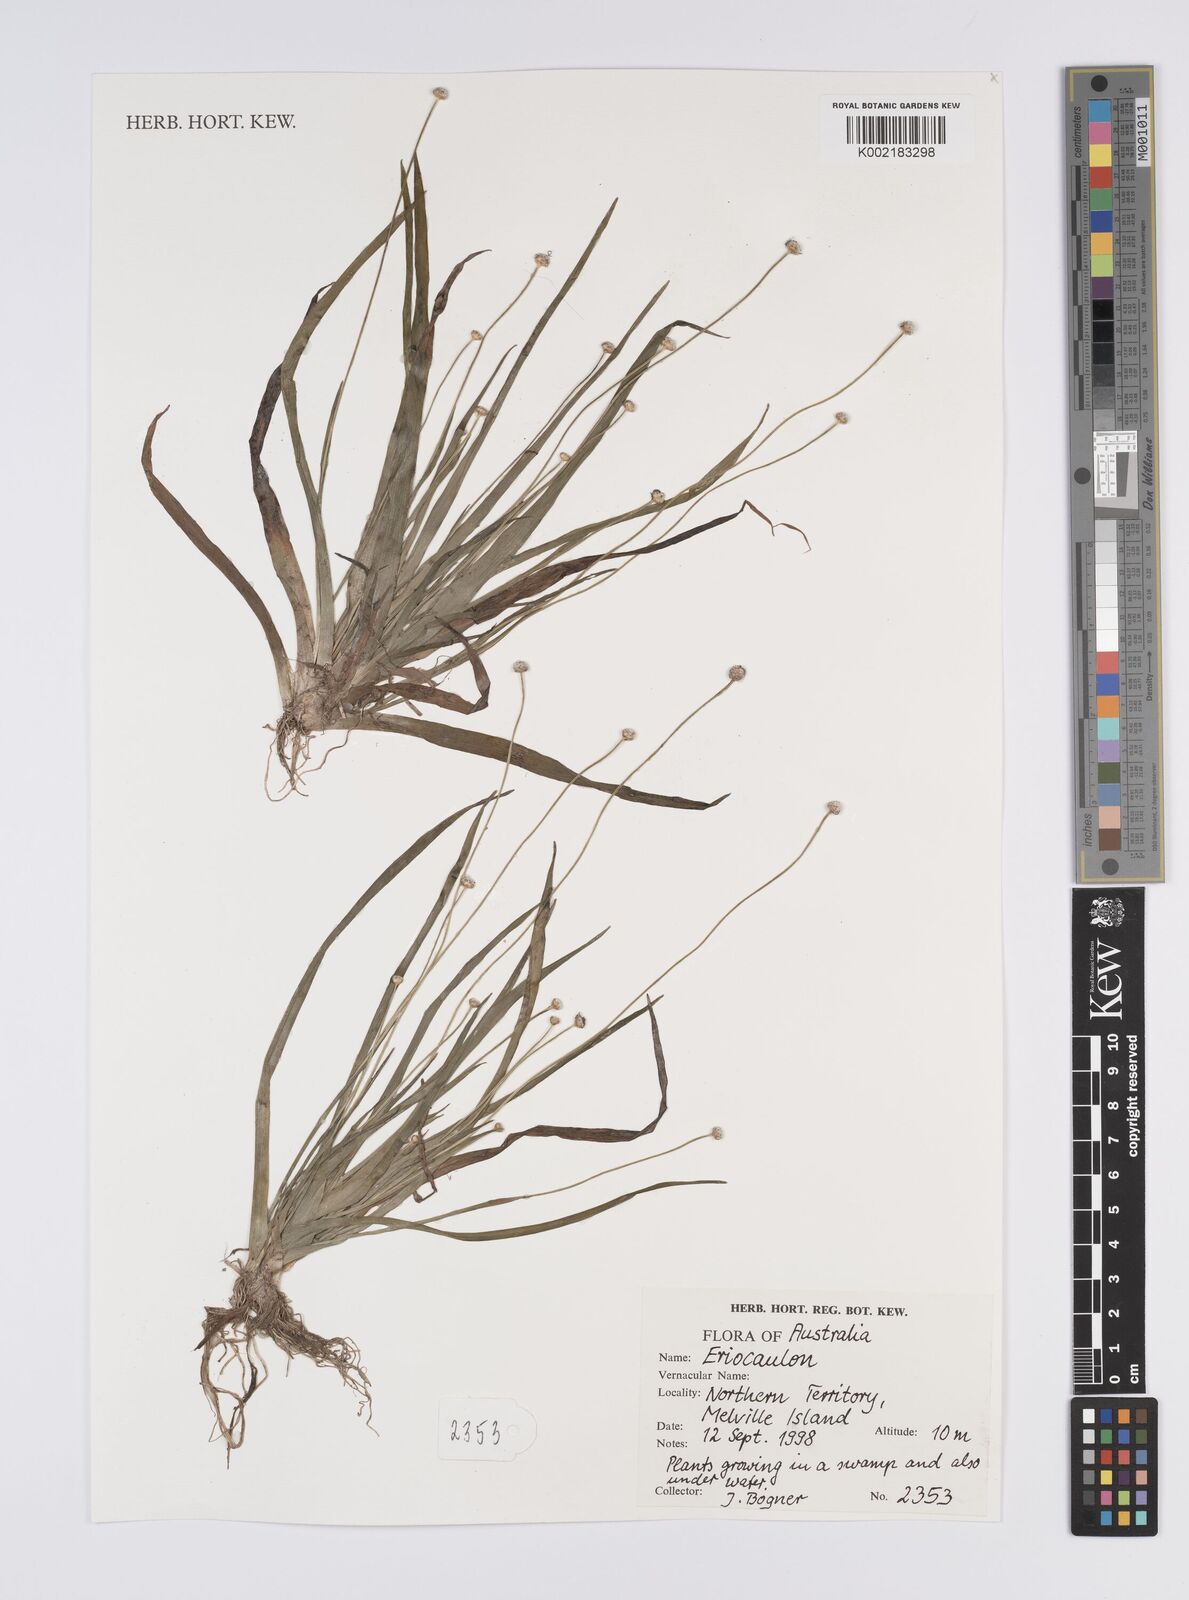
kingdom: Plantae
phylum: Tracheophyta
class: Liliopsida
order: Poales
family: Eriocaulaceae
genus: Eriocaulon
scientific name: Eriocaulon
